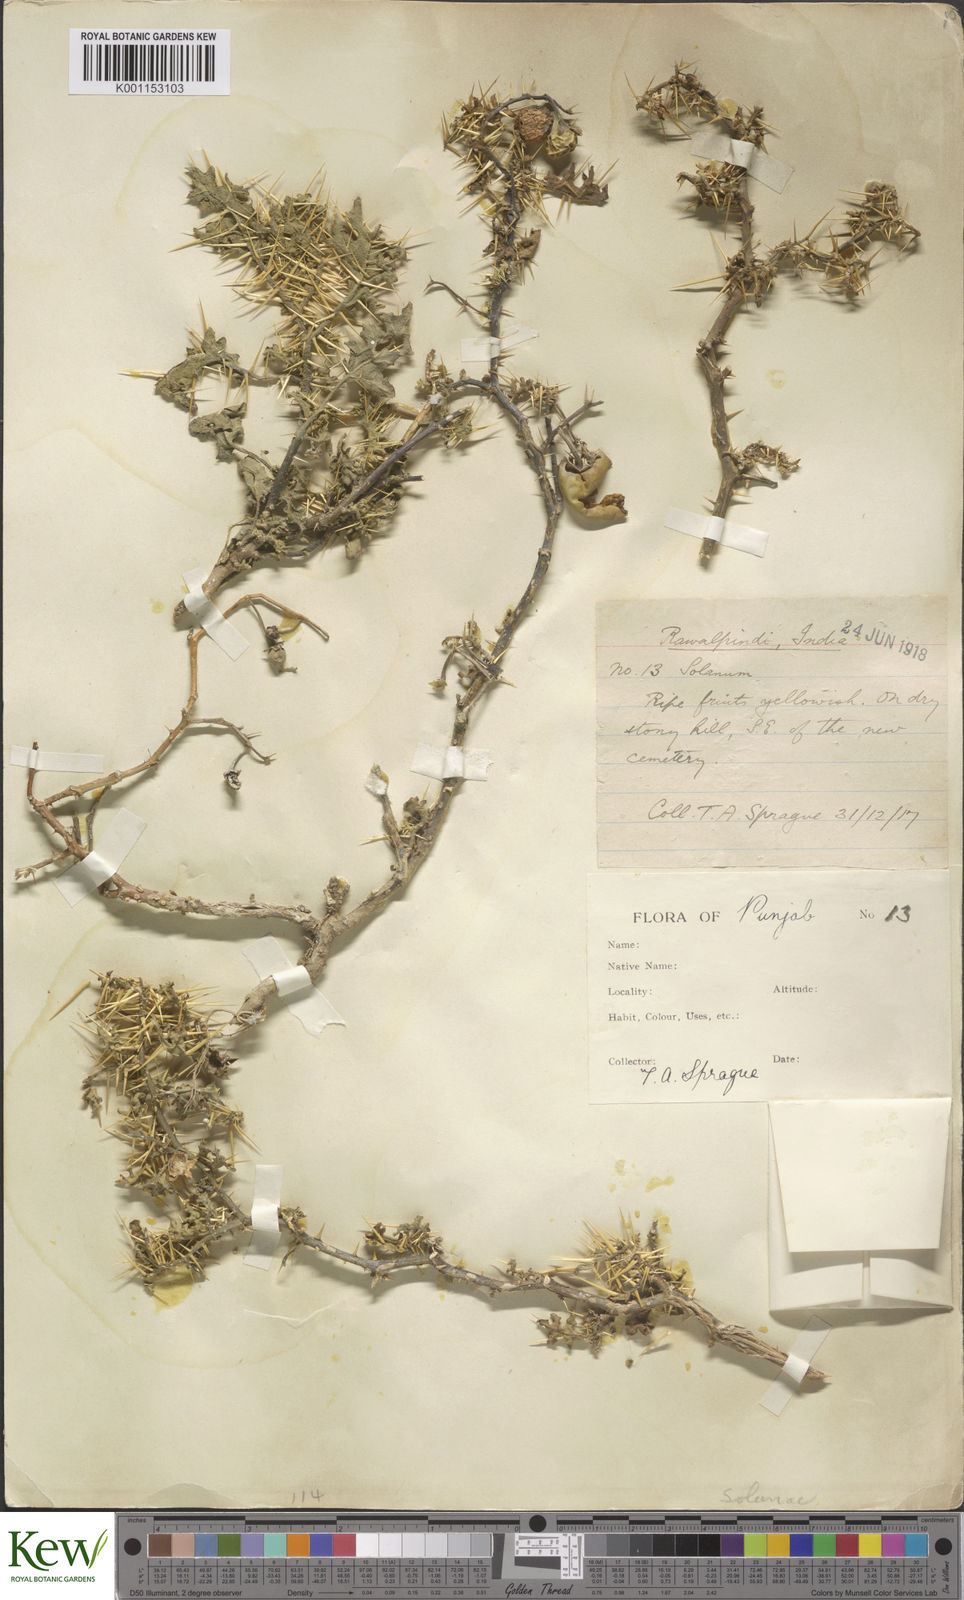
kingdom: Plantae
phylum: Tracheophyta
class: Magnoliopsida
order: Solanales
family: Solanaceae
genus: Solanum
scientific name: Solanum virginianum
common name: Surattense nightshade
